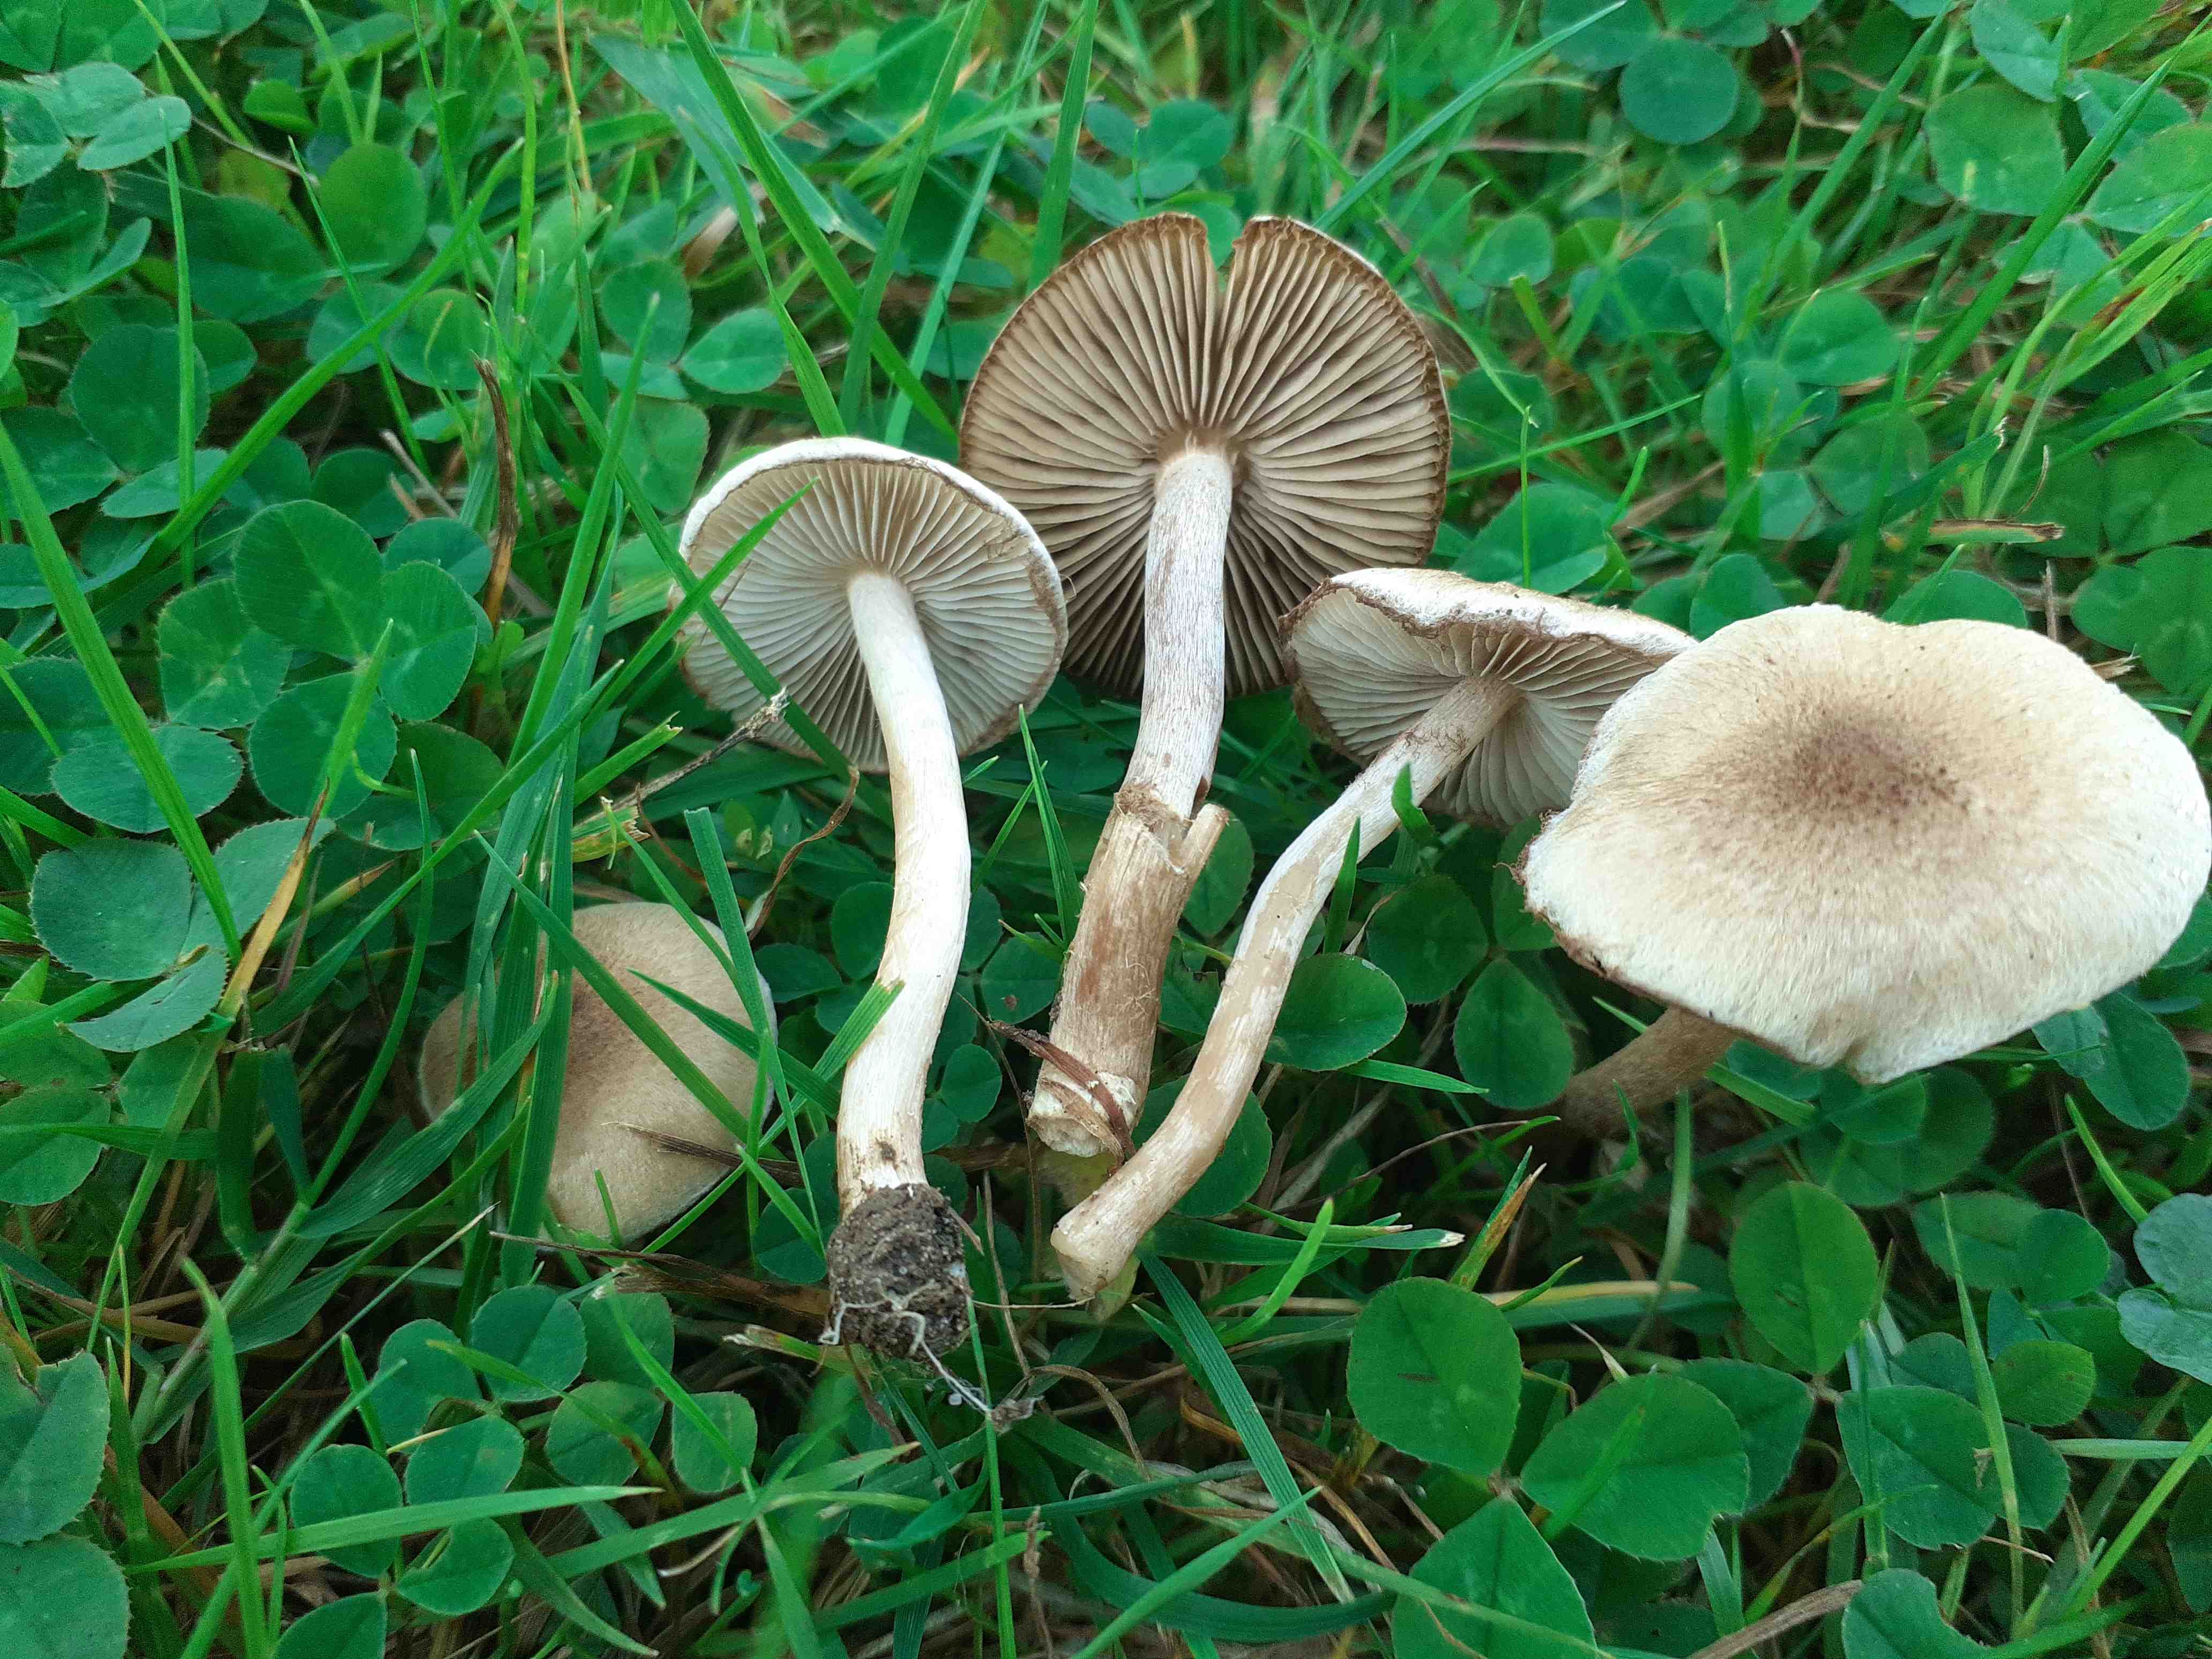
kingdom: Fungi
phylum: Basidiomycota
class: Agaricomycetes
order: Agaricales
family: Inocybaceae
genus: Inocybe
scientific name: Inocybe curvipes
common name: plæne-trævlhat
